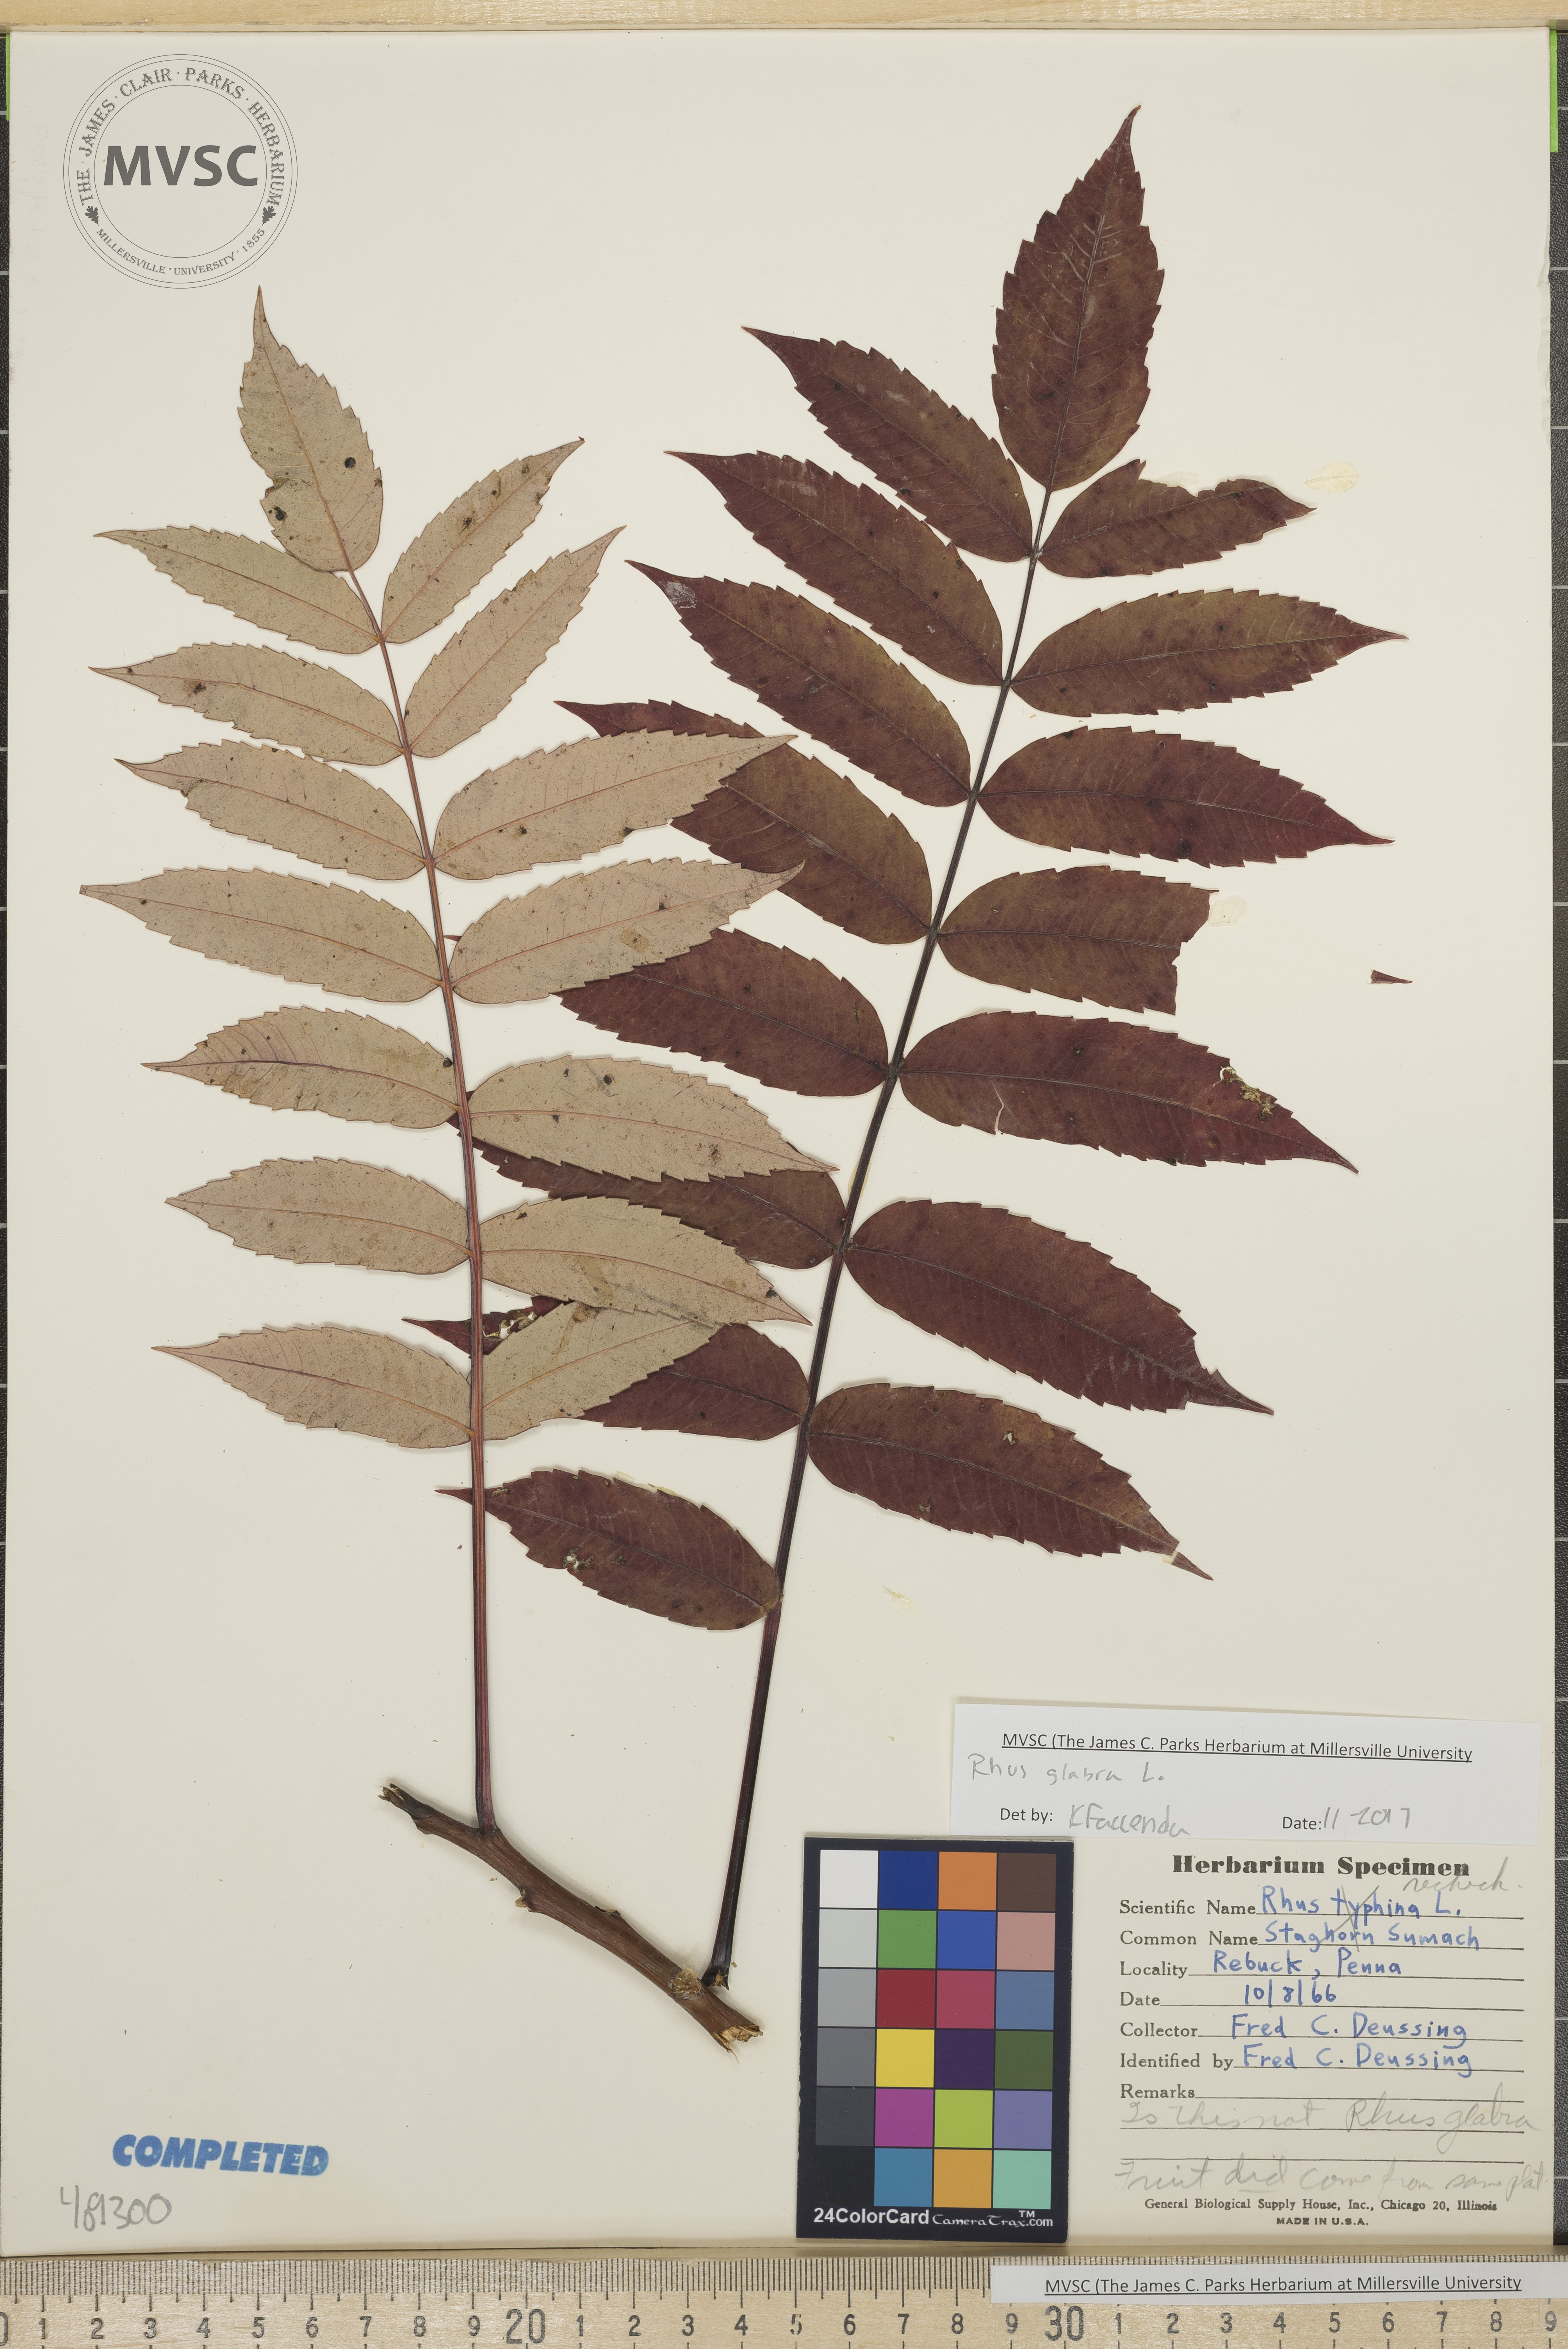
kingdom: Plantae
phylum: Tracheophyta
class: Magnoliopsida
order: Sapindales
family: Anacardiaceae
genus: Rhus
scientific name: Rhus glabra
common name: Smooth sumac
